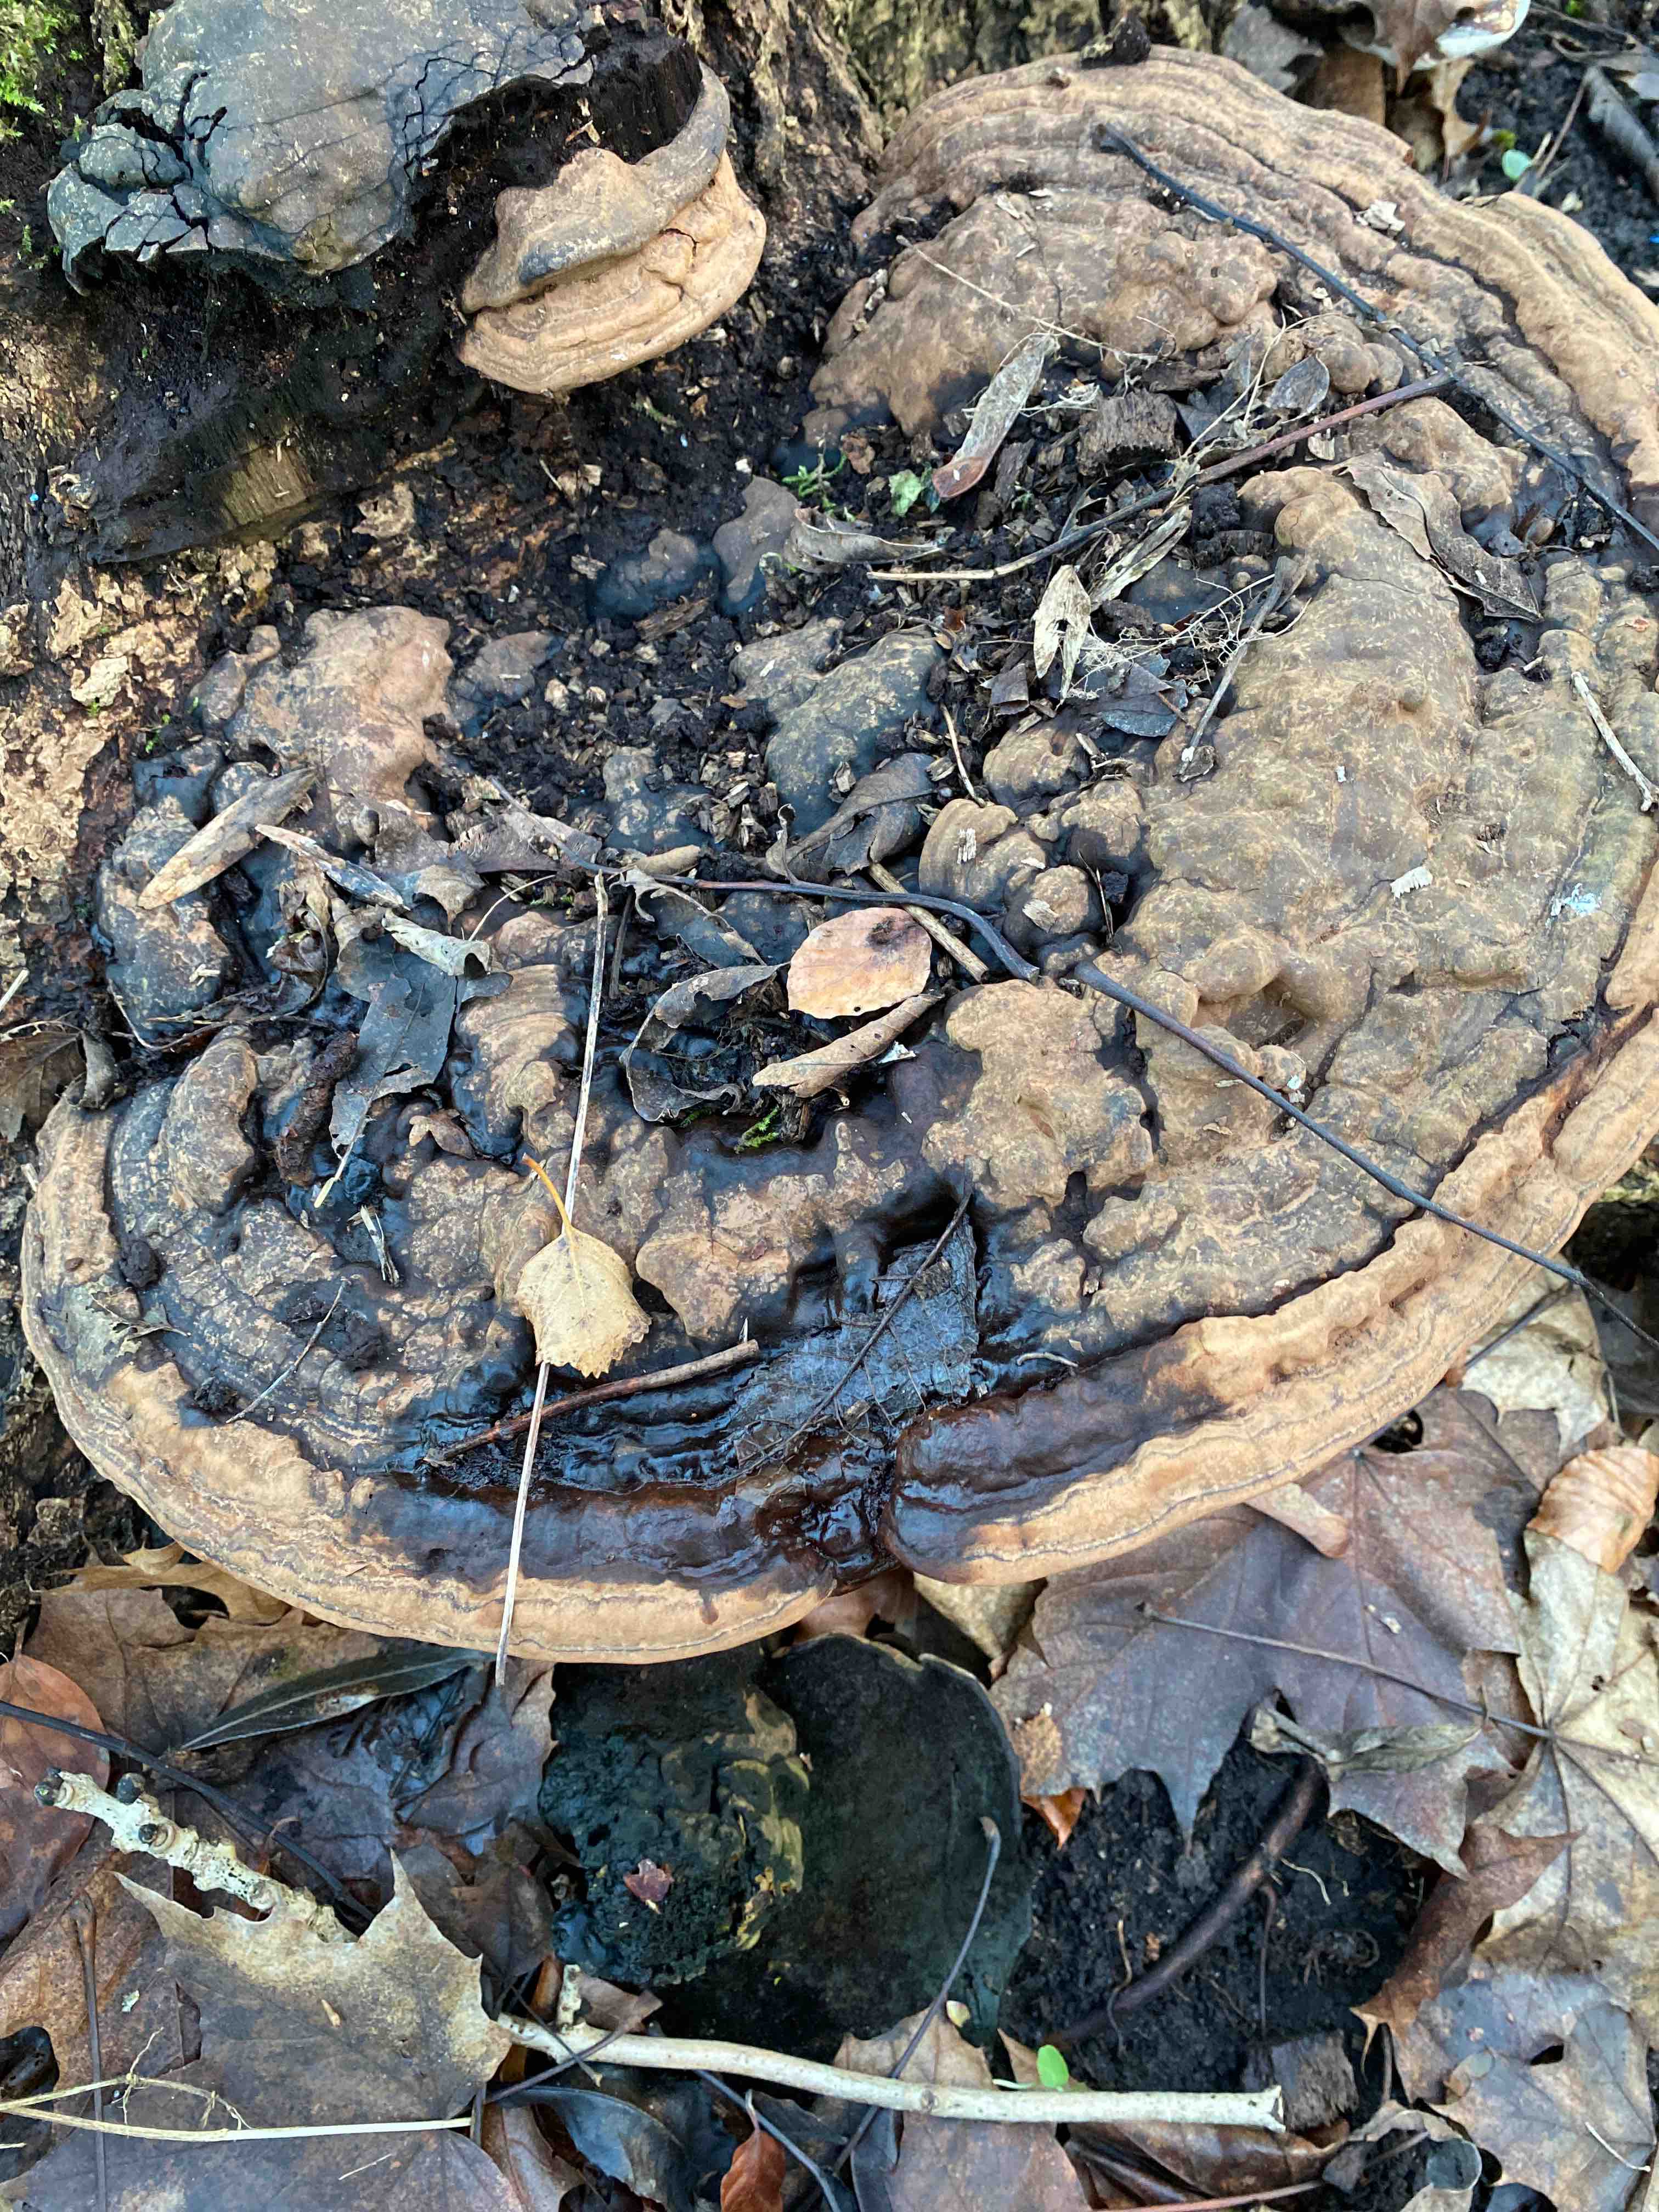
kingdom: Fungi
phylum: Basidiomycota
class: Agaricomycetes
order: Polyporales
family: Polyporaceae
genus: Ganoderma
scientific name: Ganoderma applanatum
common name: flad lakporesvamp
